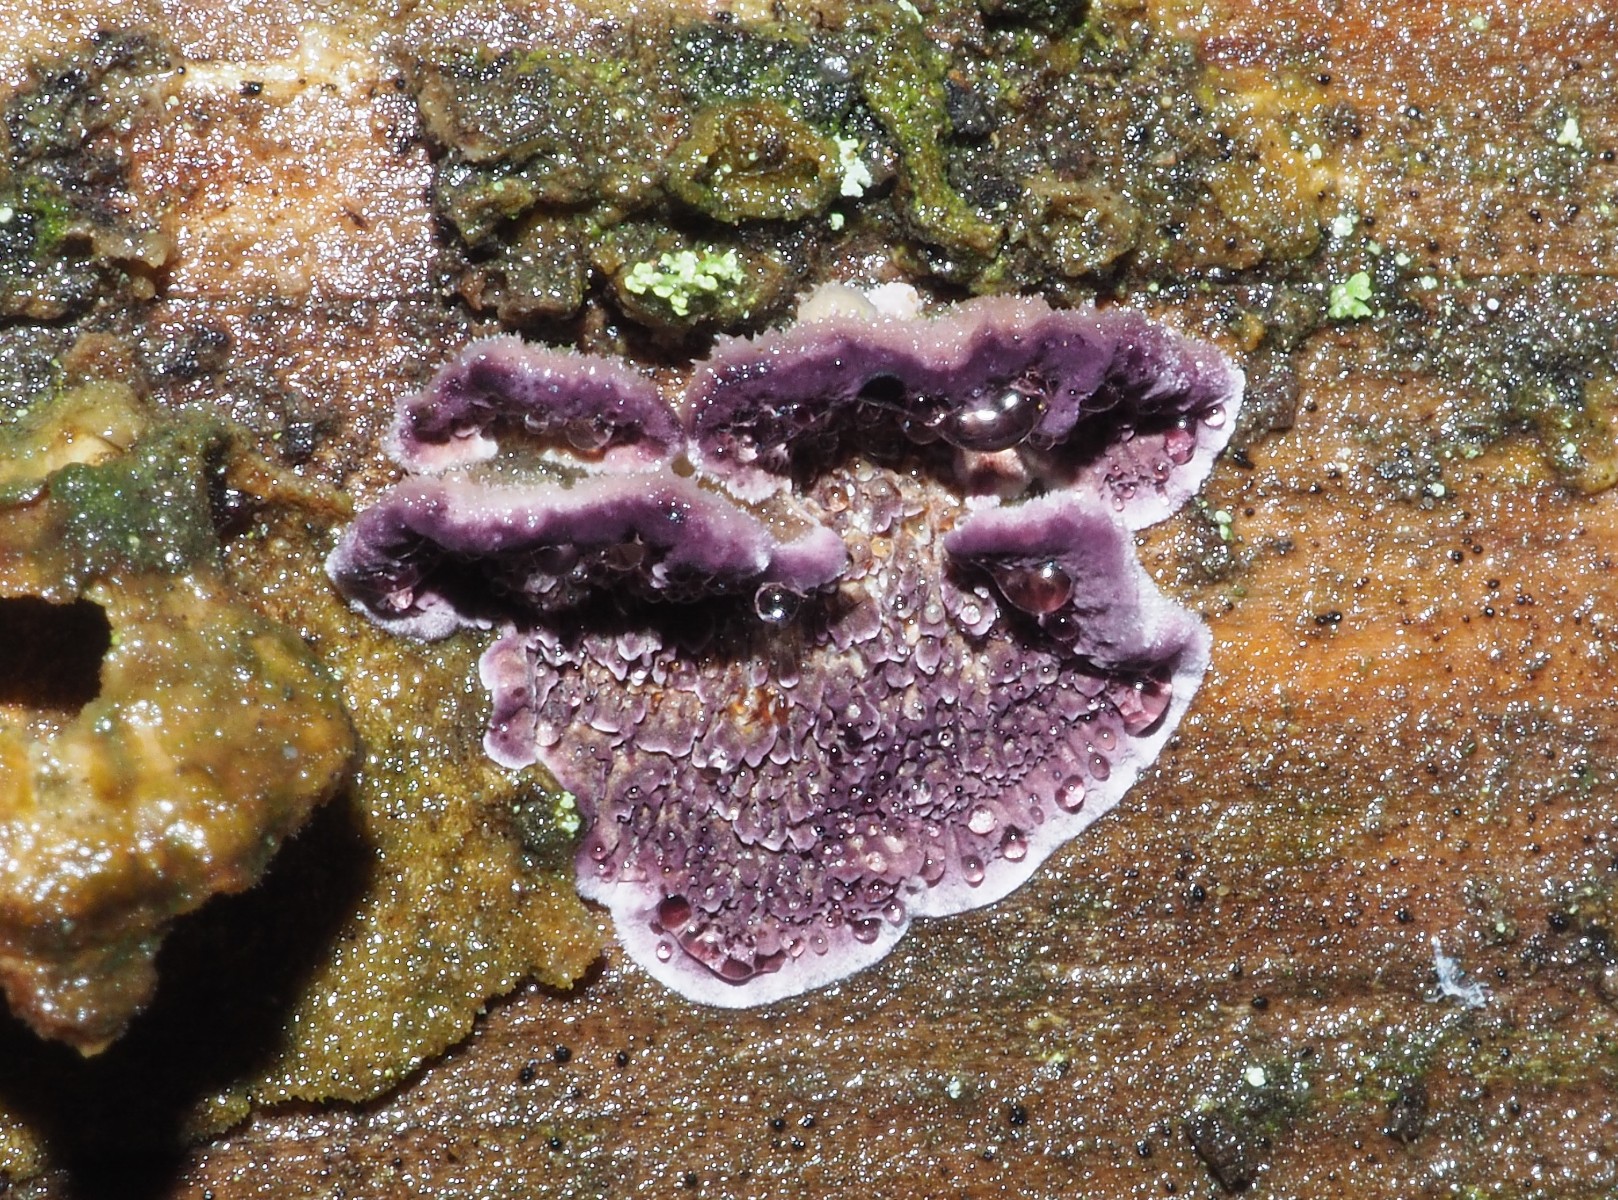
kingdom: Fungi
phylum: Basidiomycota
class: Agaricomycetes
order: Hymenochaetales
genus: Trichaptum
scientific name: Trichaptum abietinum
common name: almindelig violporesvamp
